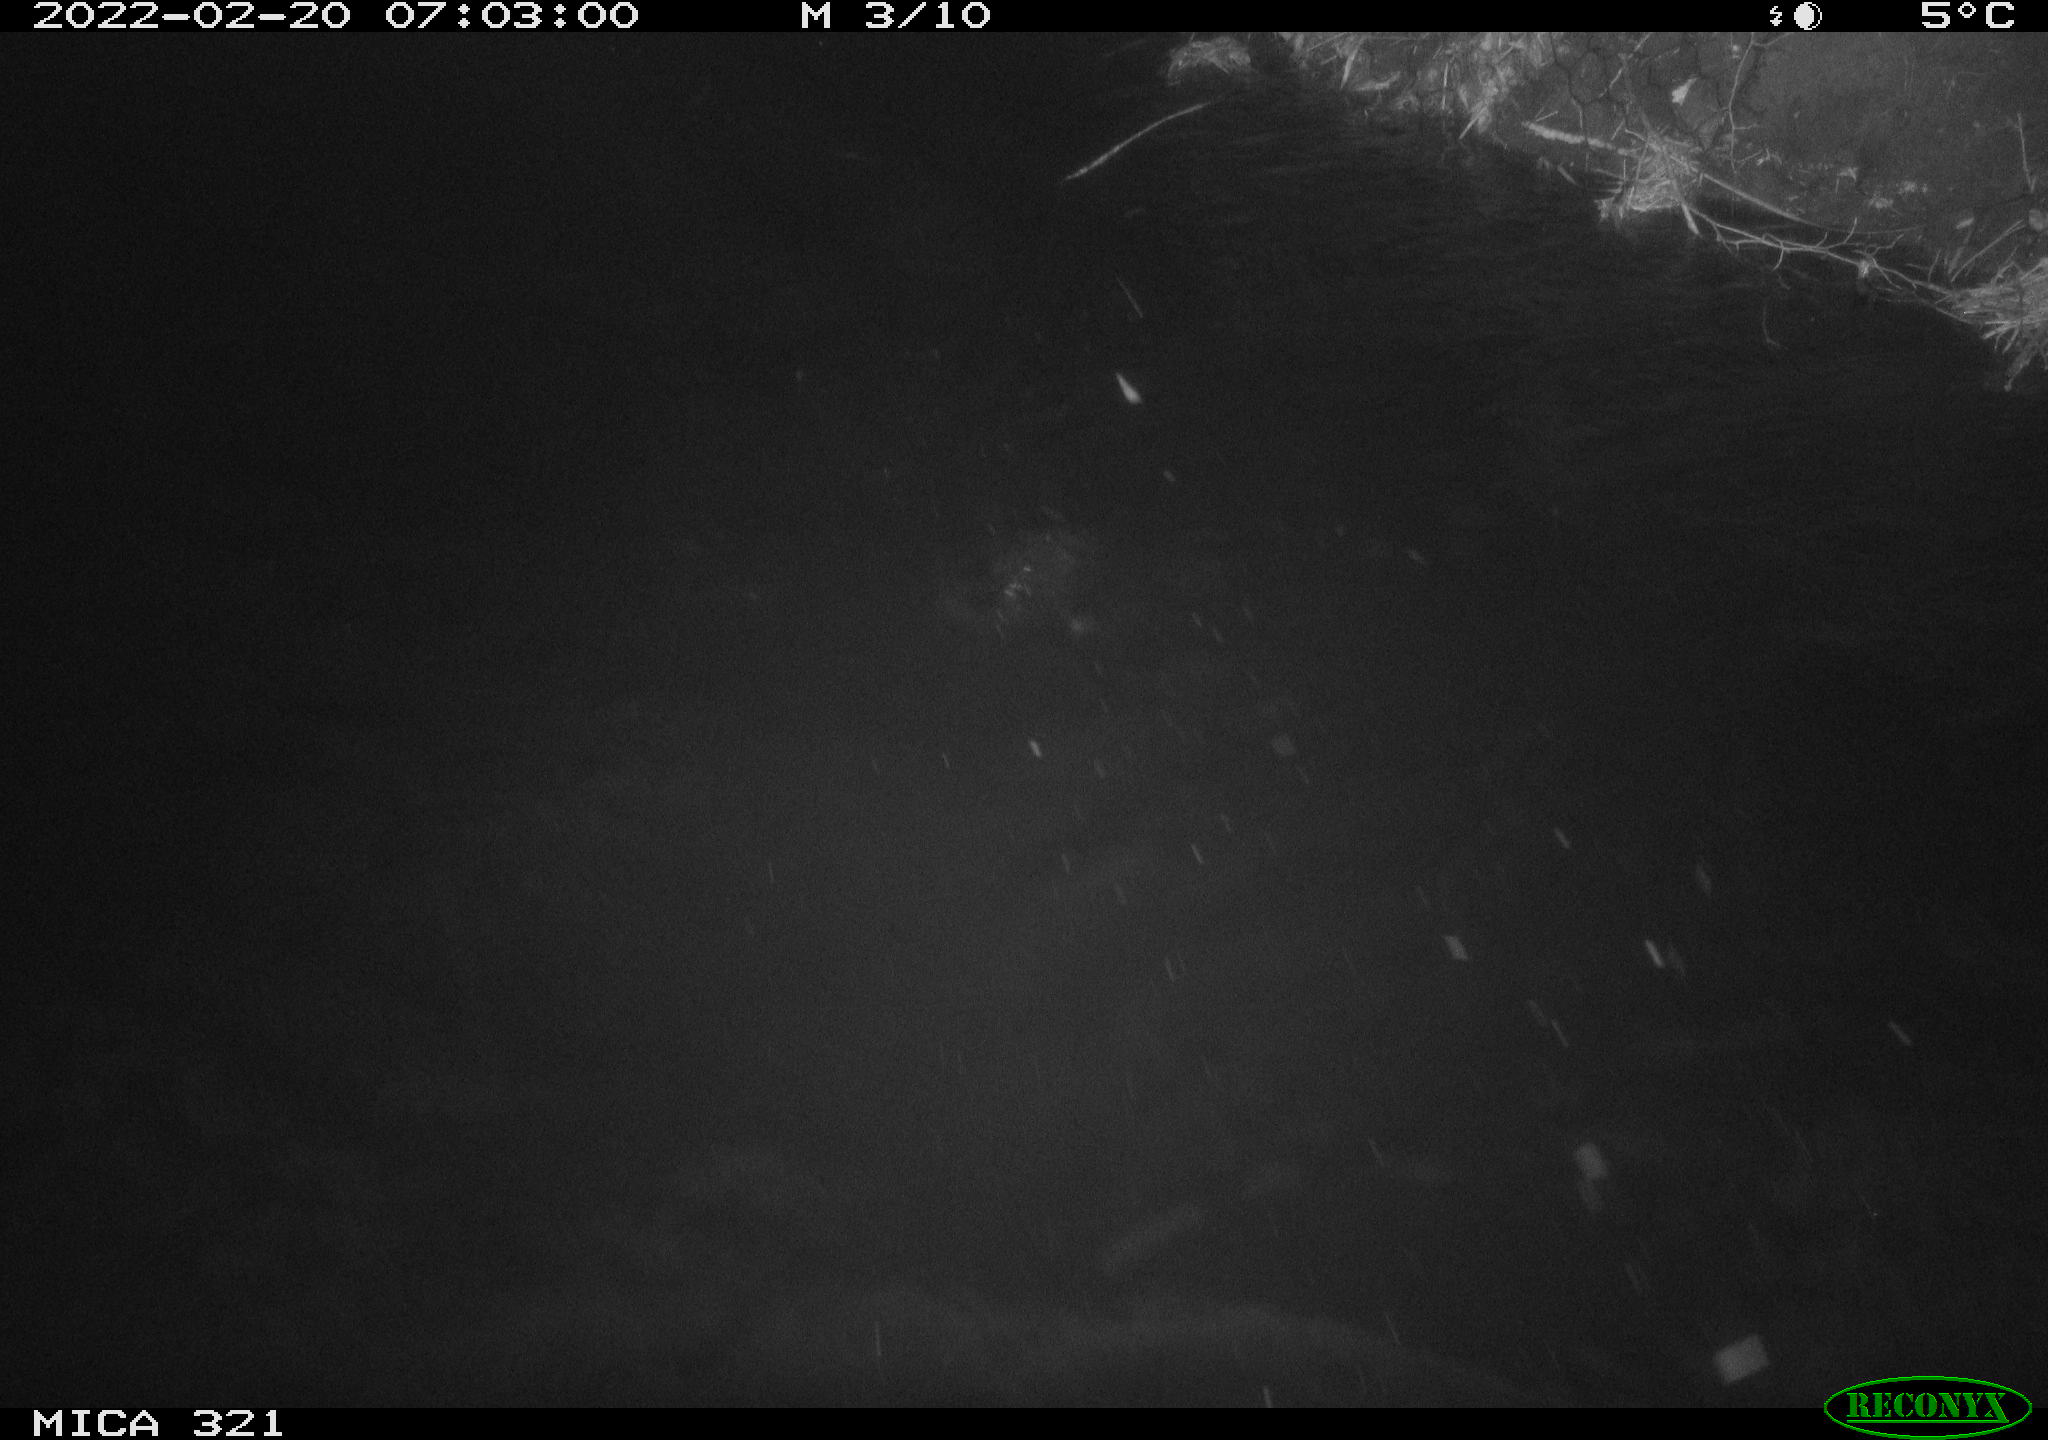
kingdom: Animalia
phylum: Chordata
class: Aves
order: Anseriformes
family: Anatidae
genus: Anas
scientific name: Anas platyrhynchos
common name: Mallard
